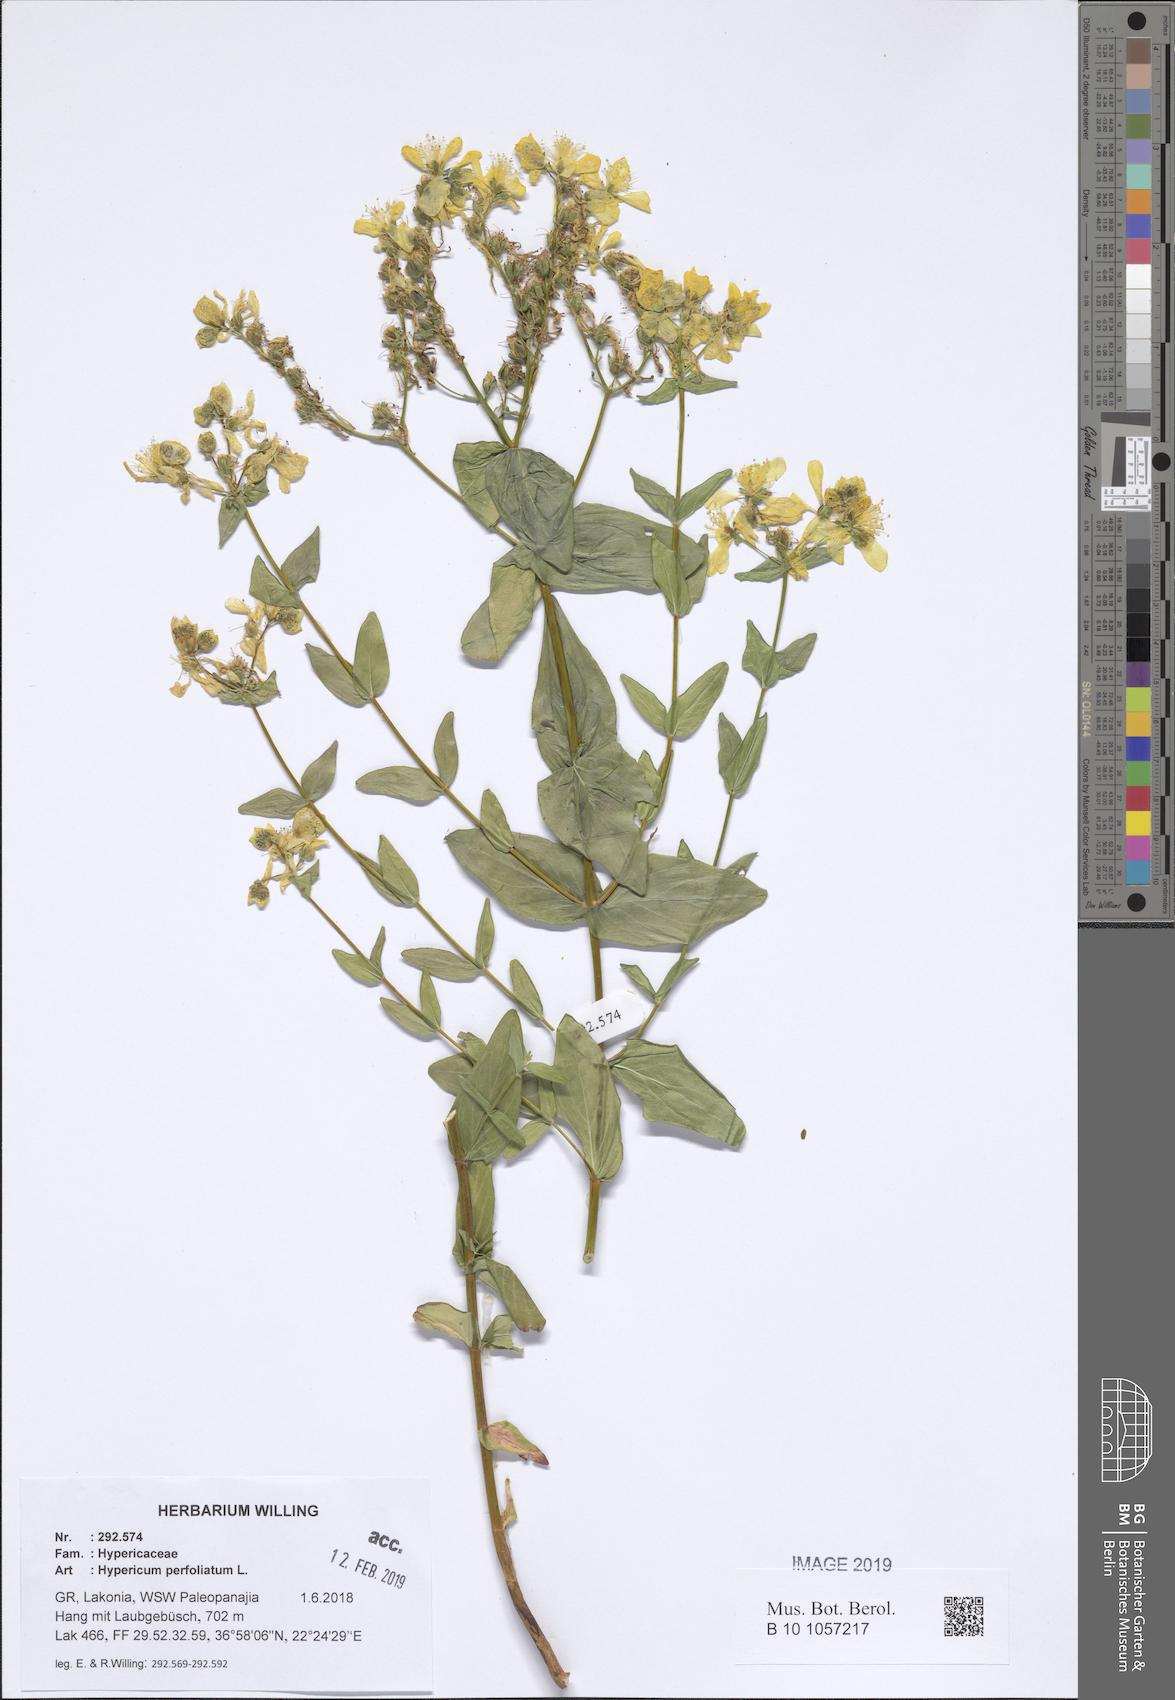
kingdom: Plantae
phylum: Tracheophyta
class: Magnoliopsida
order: Malpighiales
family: Hypericaceae
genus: Hypericum
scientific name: Hypericum perfoliatum
